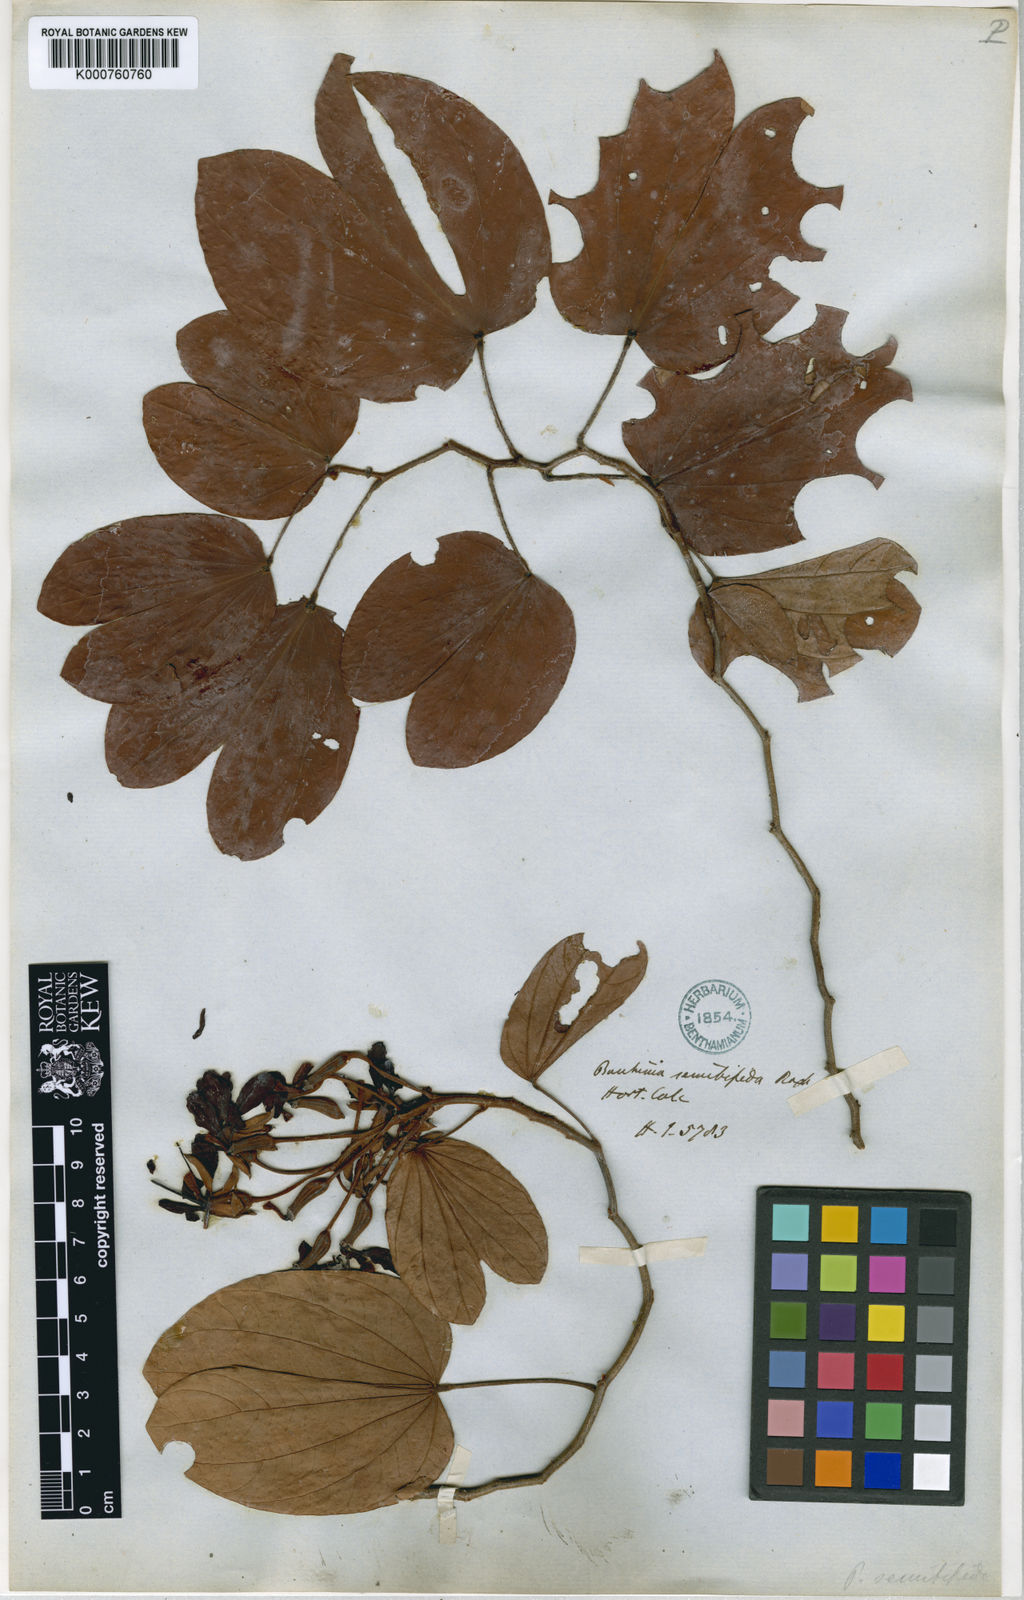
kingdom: Plantae
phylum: Tracheophyta
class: Magnoliopsida
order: Fabales
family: Fabaceae
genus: Phanera
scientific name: Phanera semibifida
